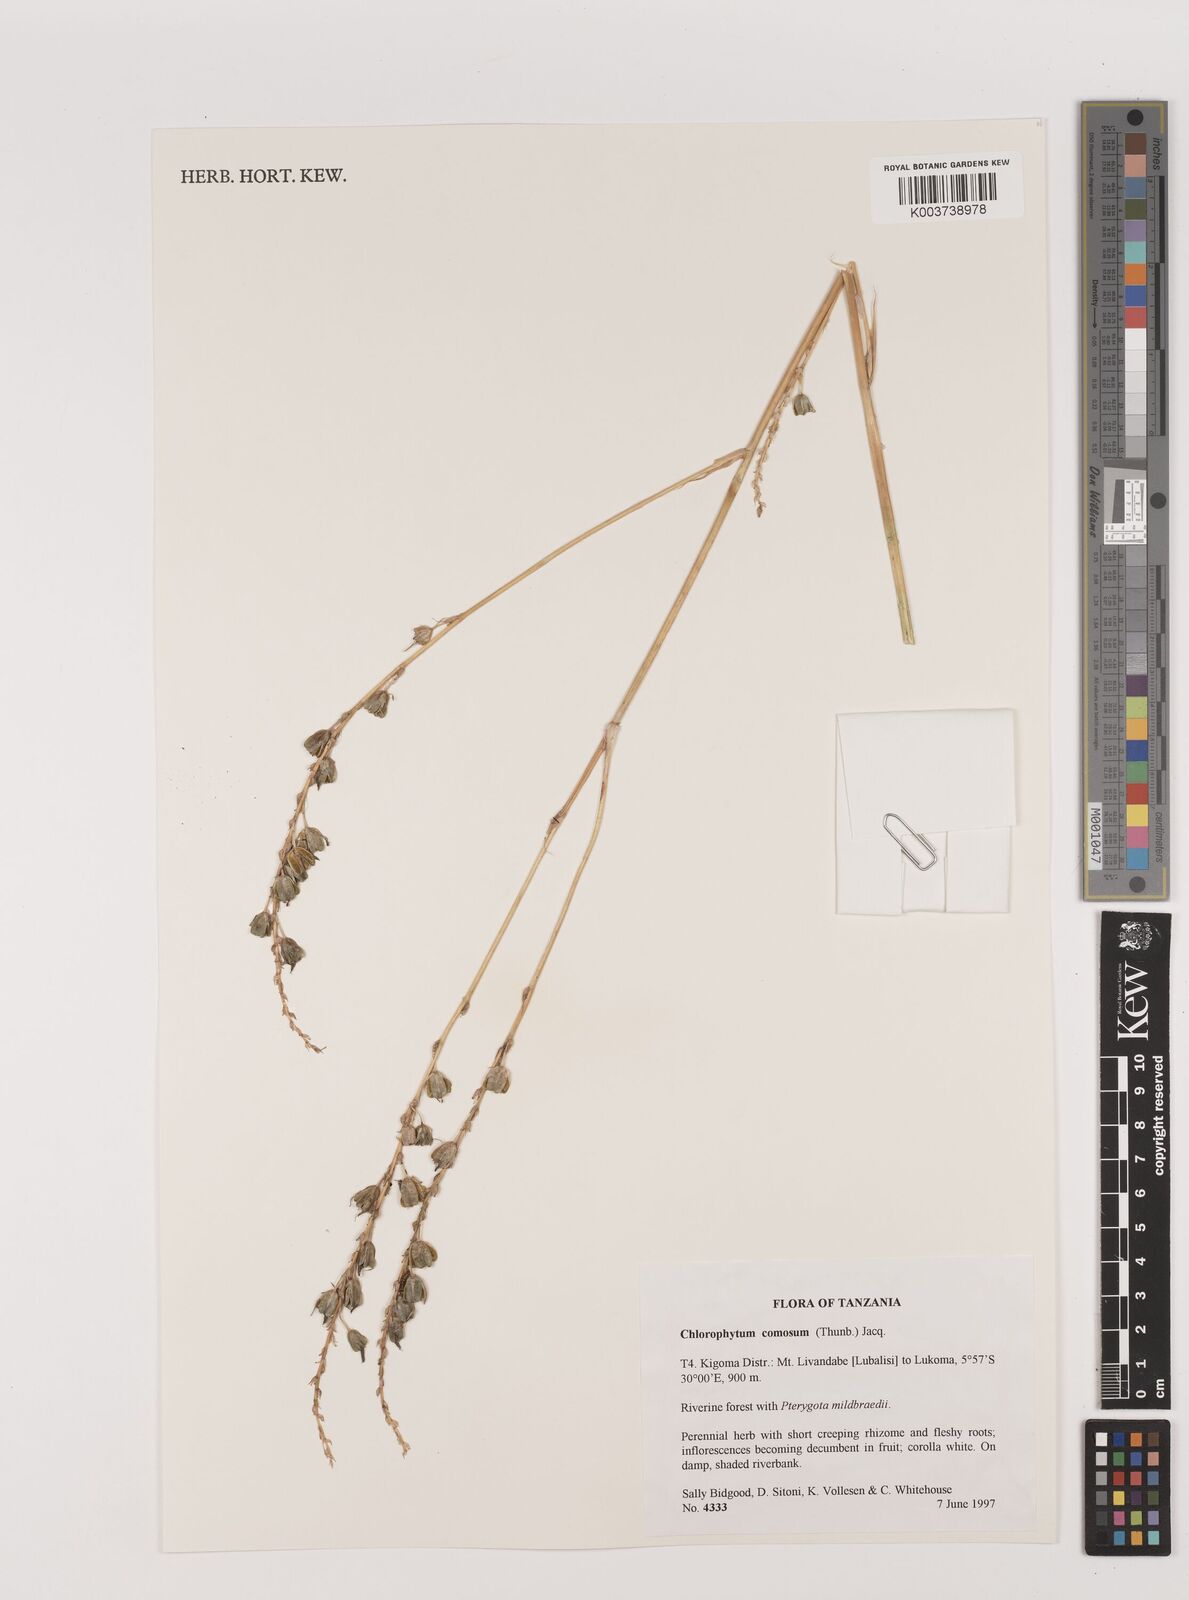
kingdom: Plantae
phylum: Tracheophyta
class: Liliopsida
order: Asparagales
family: Asparagaceae
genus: Chlorophytum
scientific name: Chlorophytum comosum
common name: Spider plant
